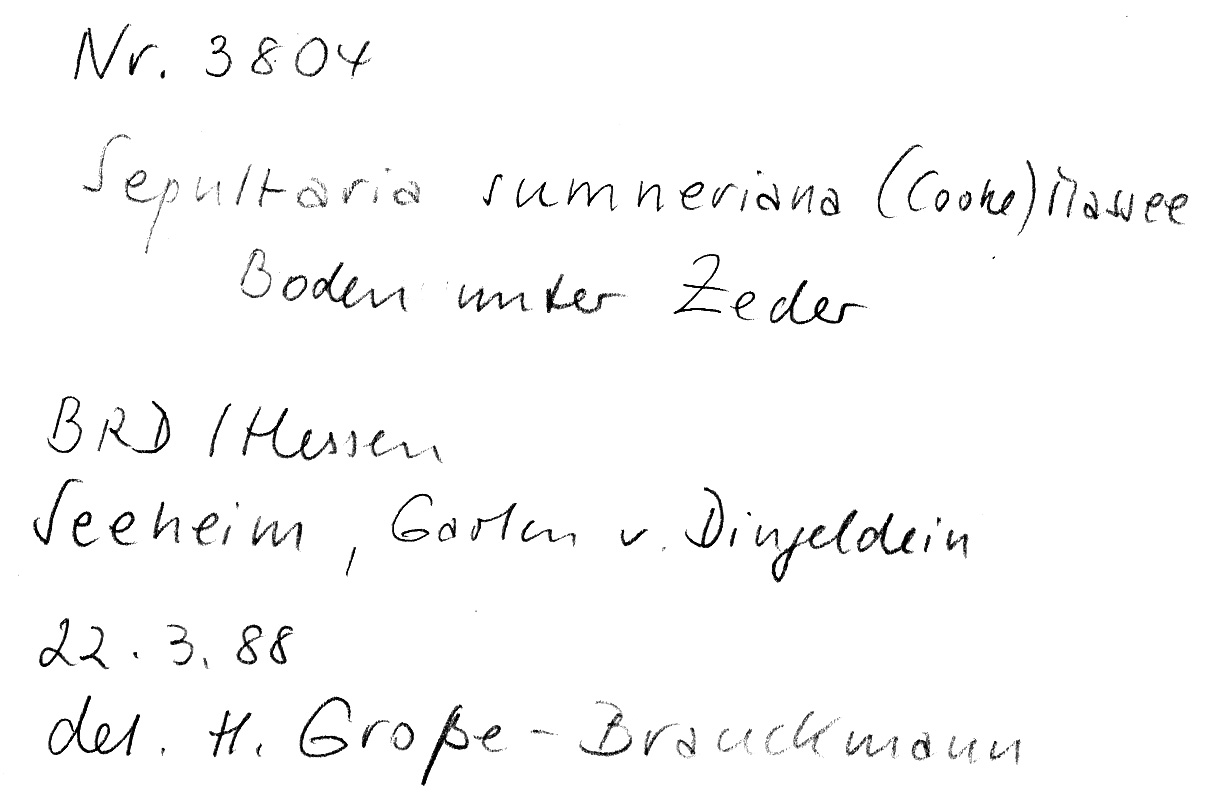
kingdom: Plantae
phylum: Tracheophyta
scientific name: Tracheophyta
